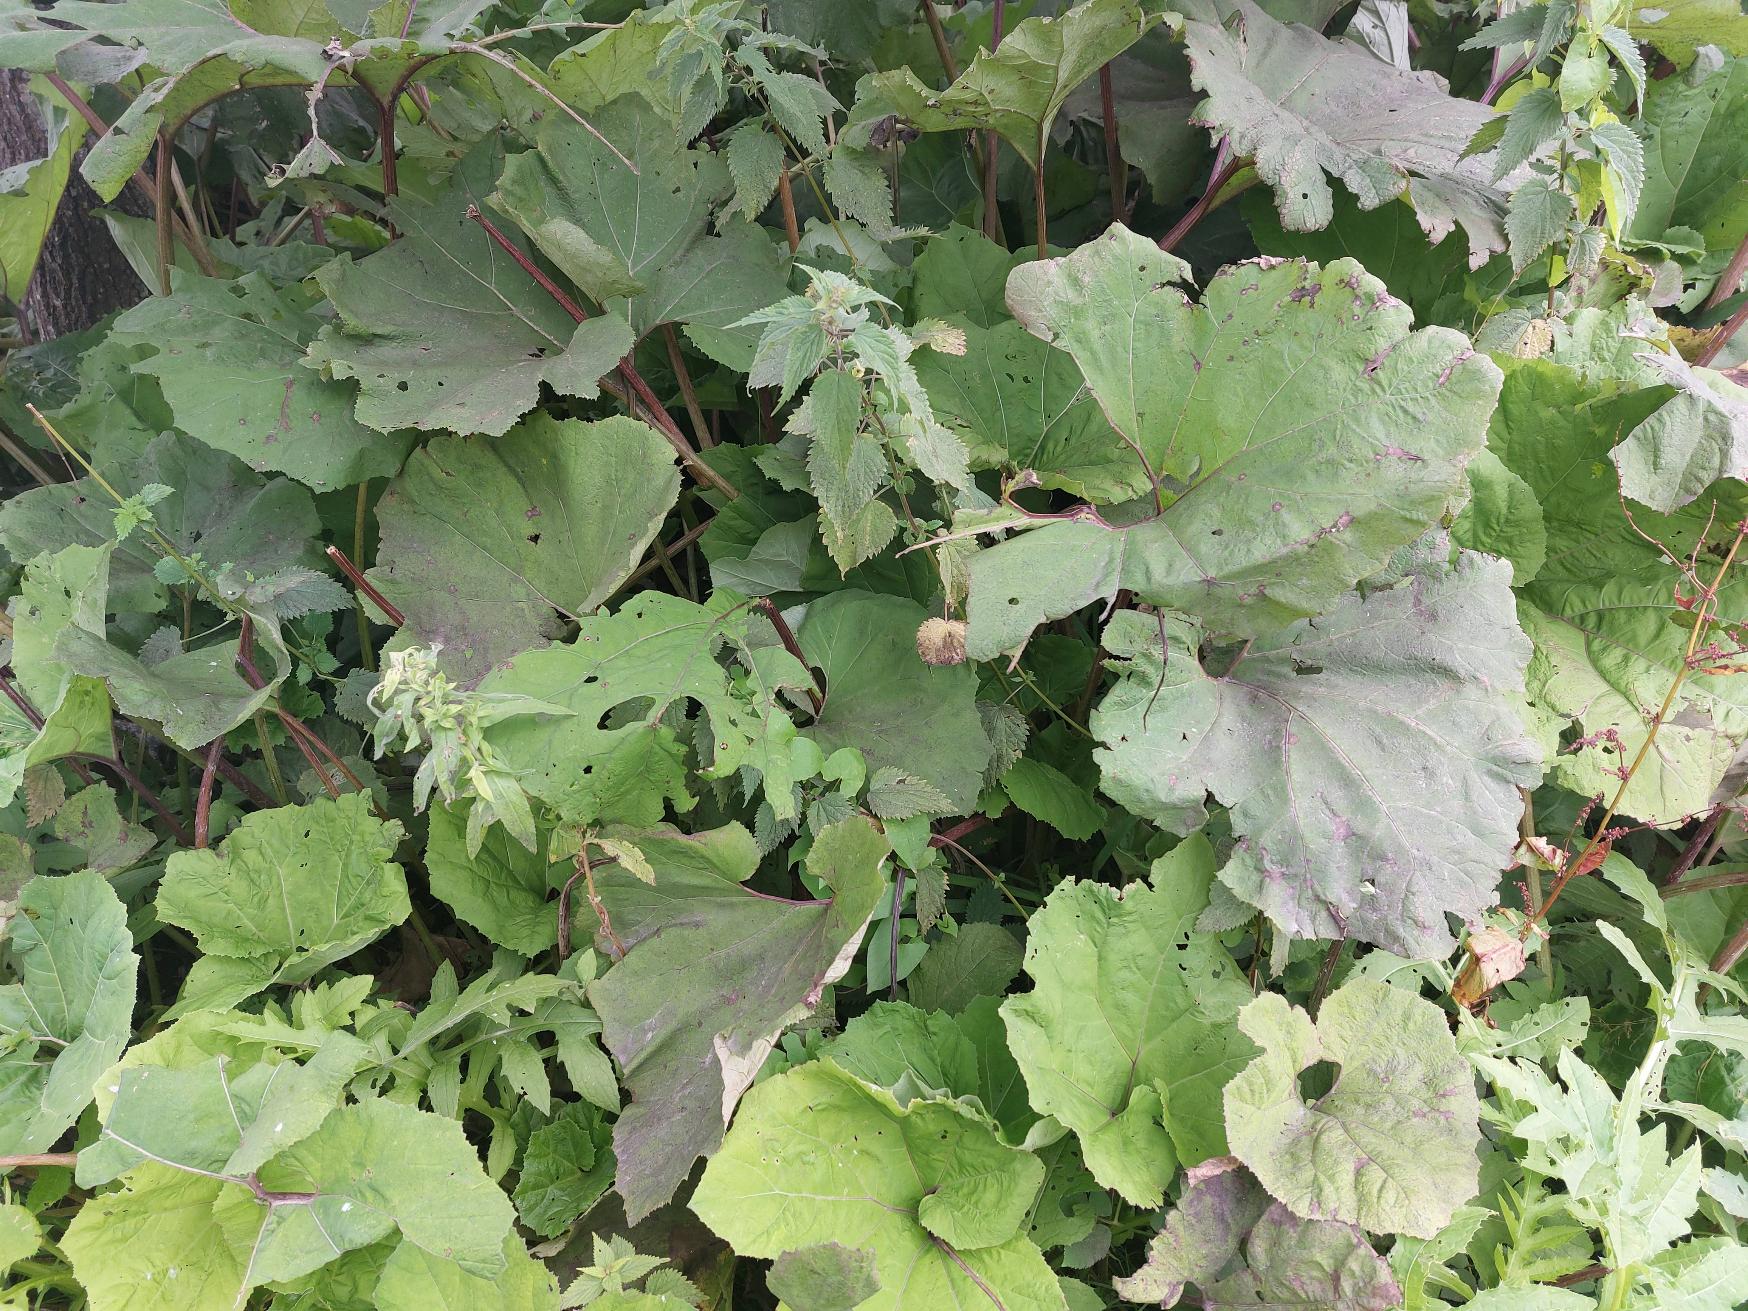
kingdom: Plantae
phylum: Tracheophyta
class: Magnoliopsida
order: Asterales
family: Asteraceae
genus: Petasites
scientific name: Petasites hybridus
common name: Rød hestehov
